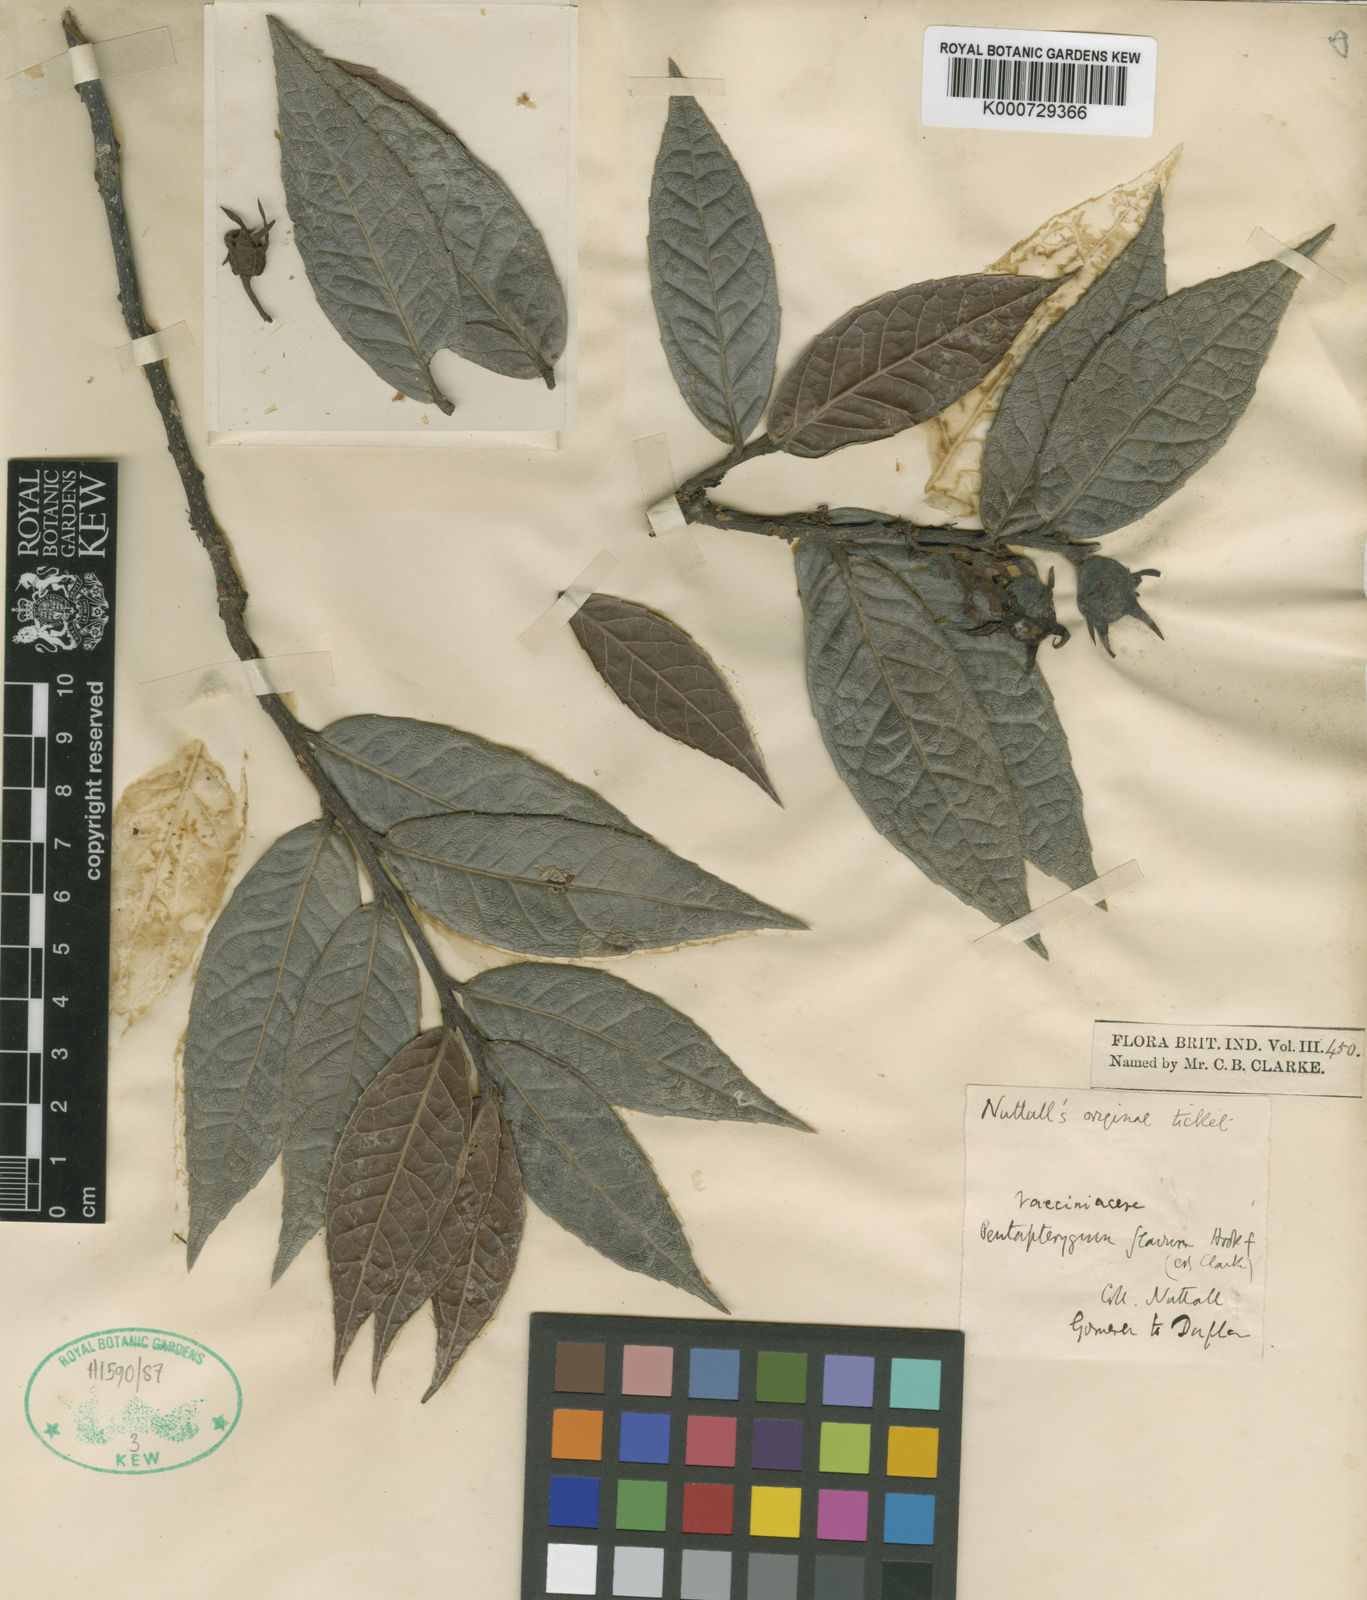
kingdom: Plantae
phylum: Tracheophyta
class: Magnoliopsida
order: Ericales
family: Ericaceae
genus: Agapetes
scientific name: Agapetes flava
